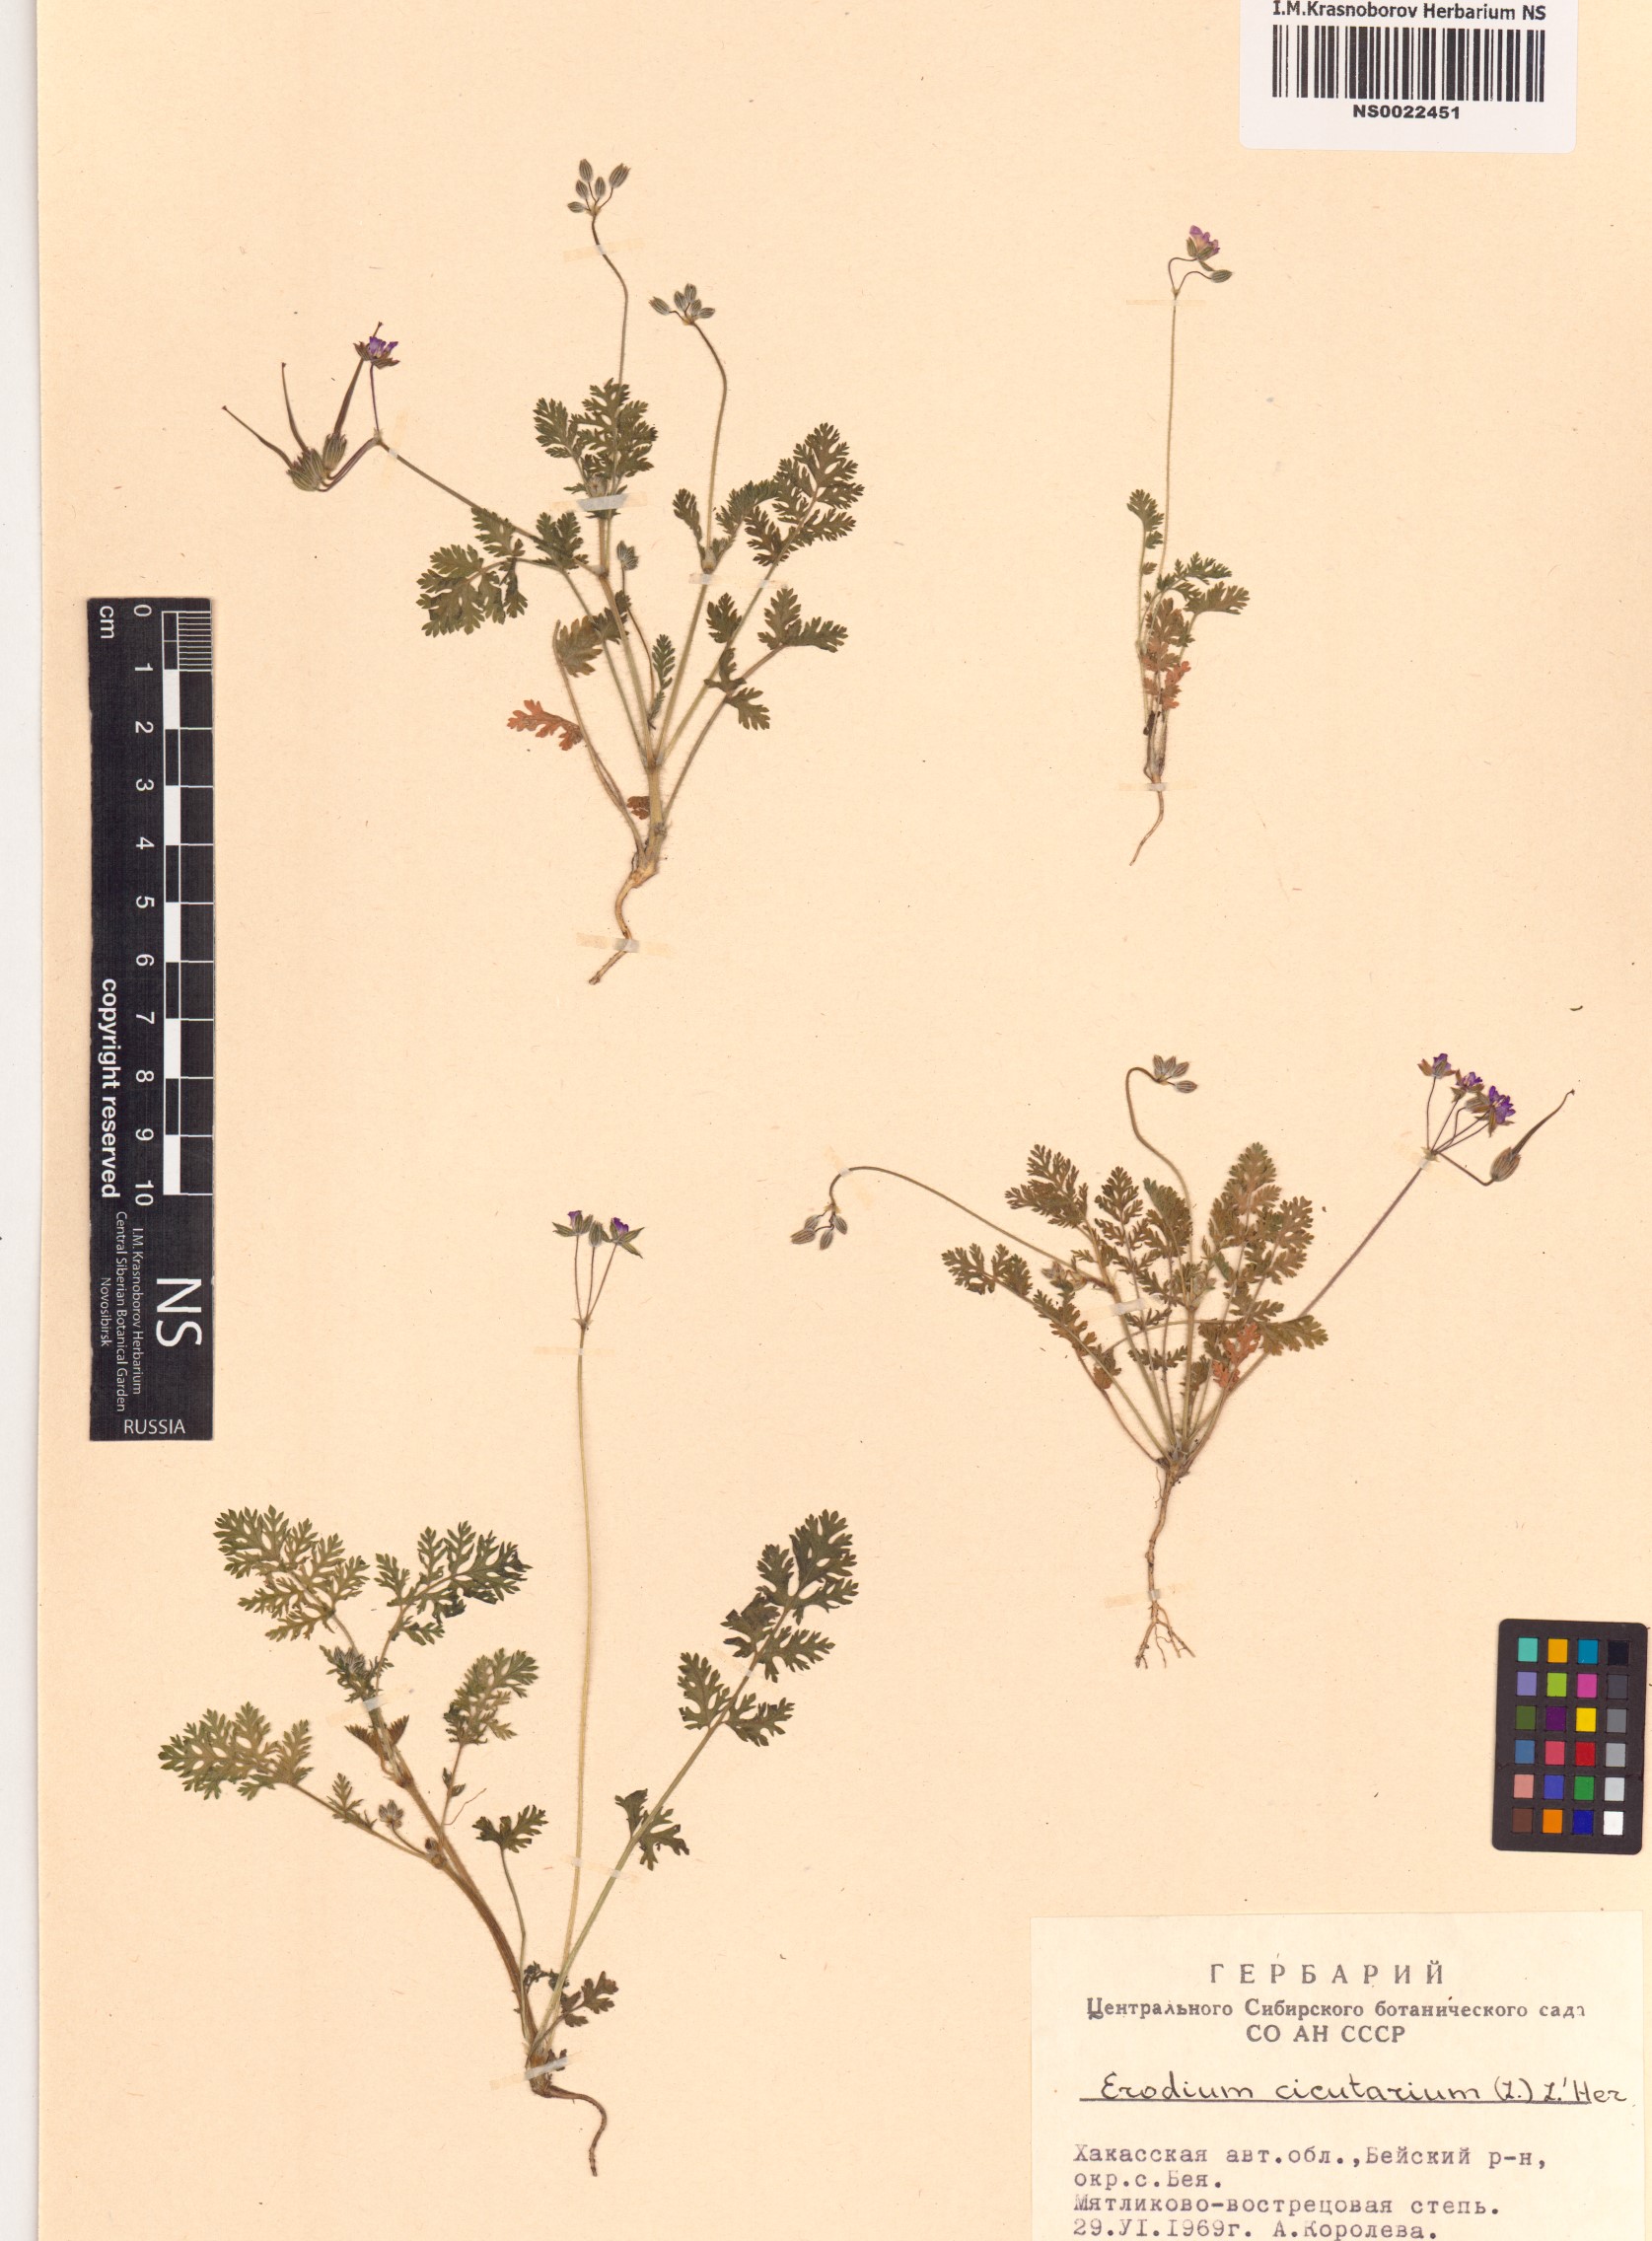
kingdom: Plantae
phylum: Tracheophyta
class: Magnoliopsida
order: Geraniales
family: Geraniaceae
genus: Erodium
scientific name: Erodium cicutarium
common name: Common stork's-bill
